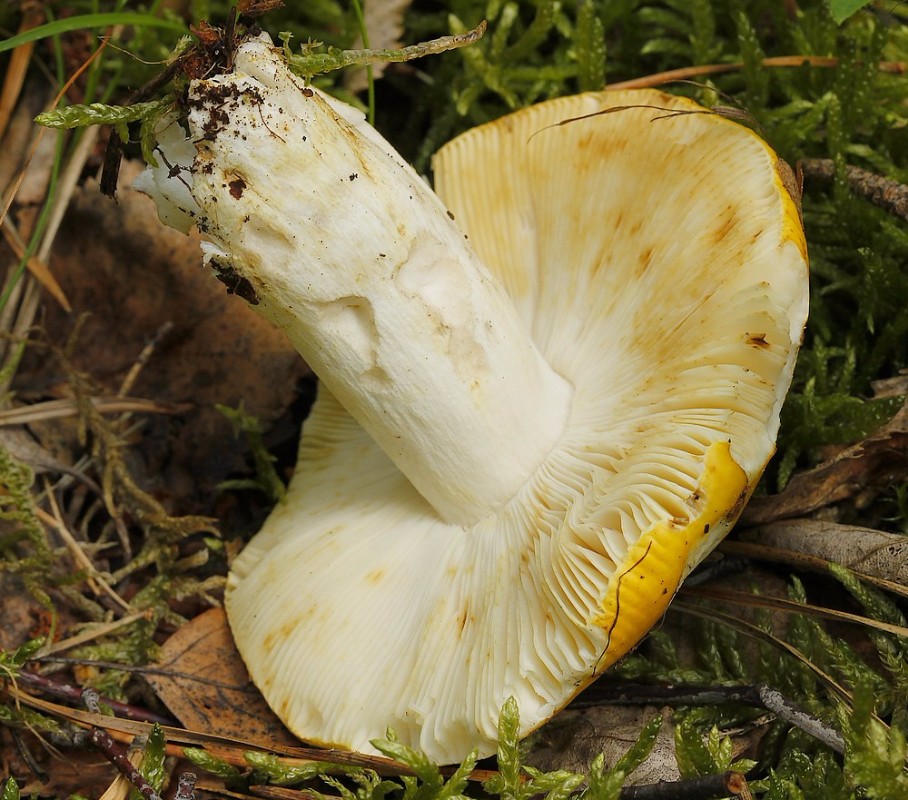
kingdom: Fungi
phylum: Basidiomycota
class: Agaricomycetes
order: Russulales
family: Russulaceae
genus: Russula
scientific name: Russula claroflava
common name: birke-skørhat
